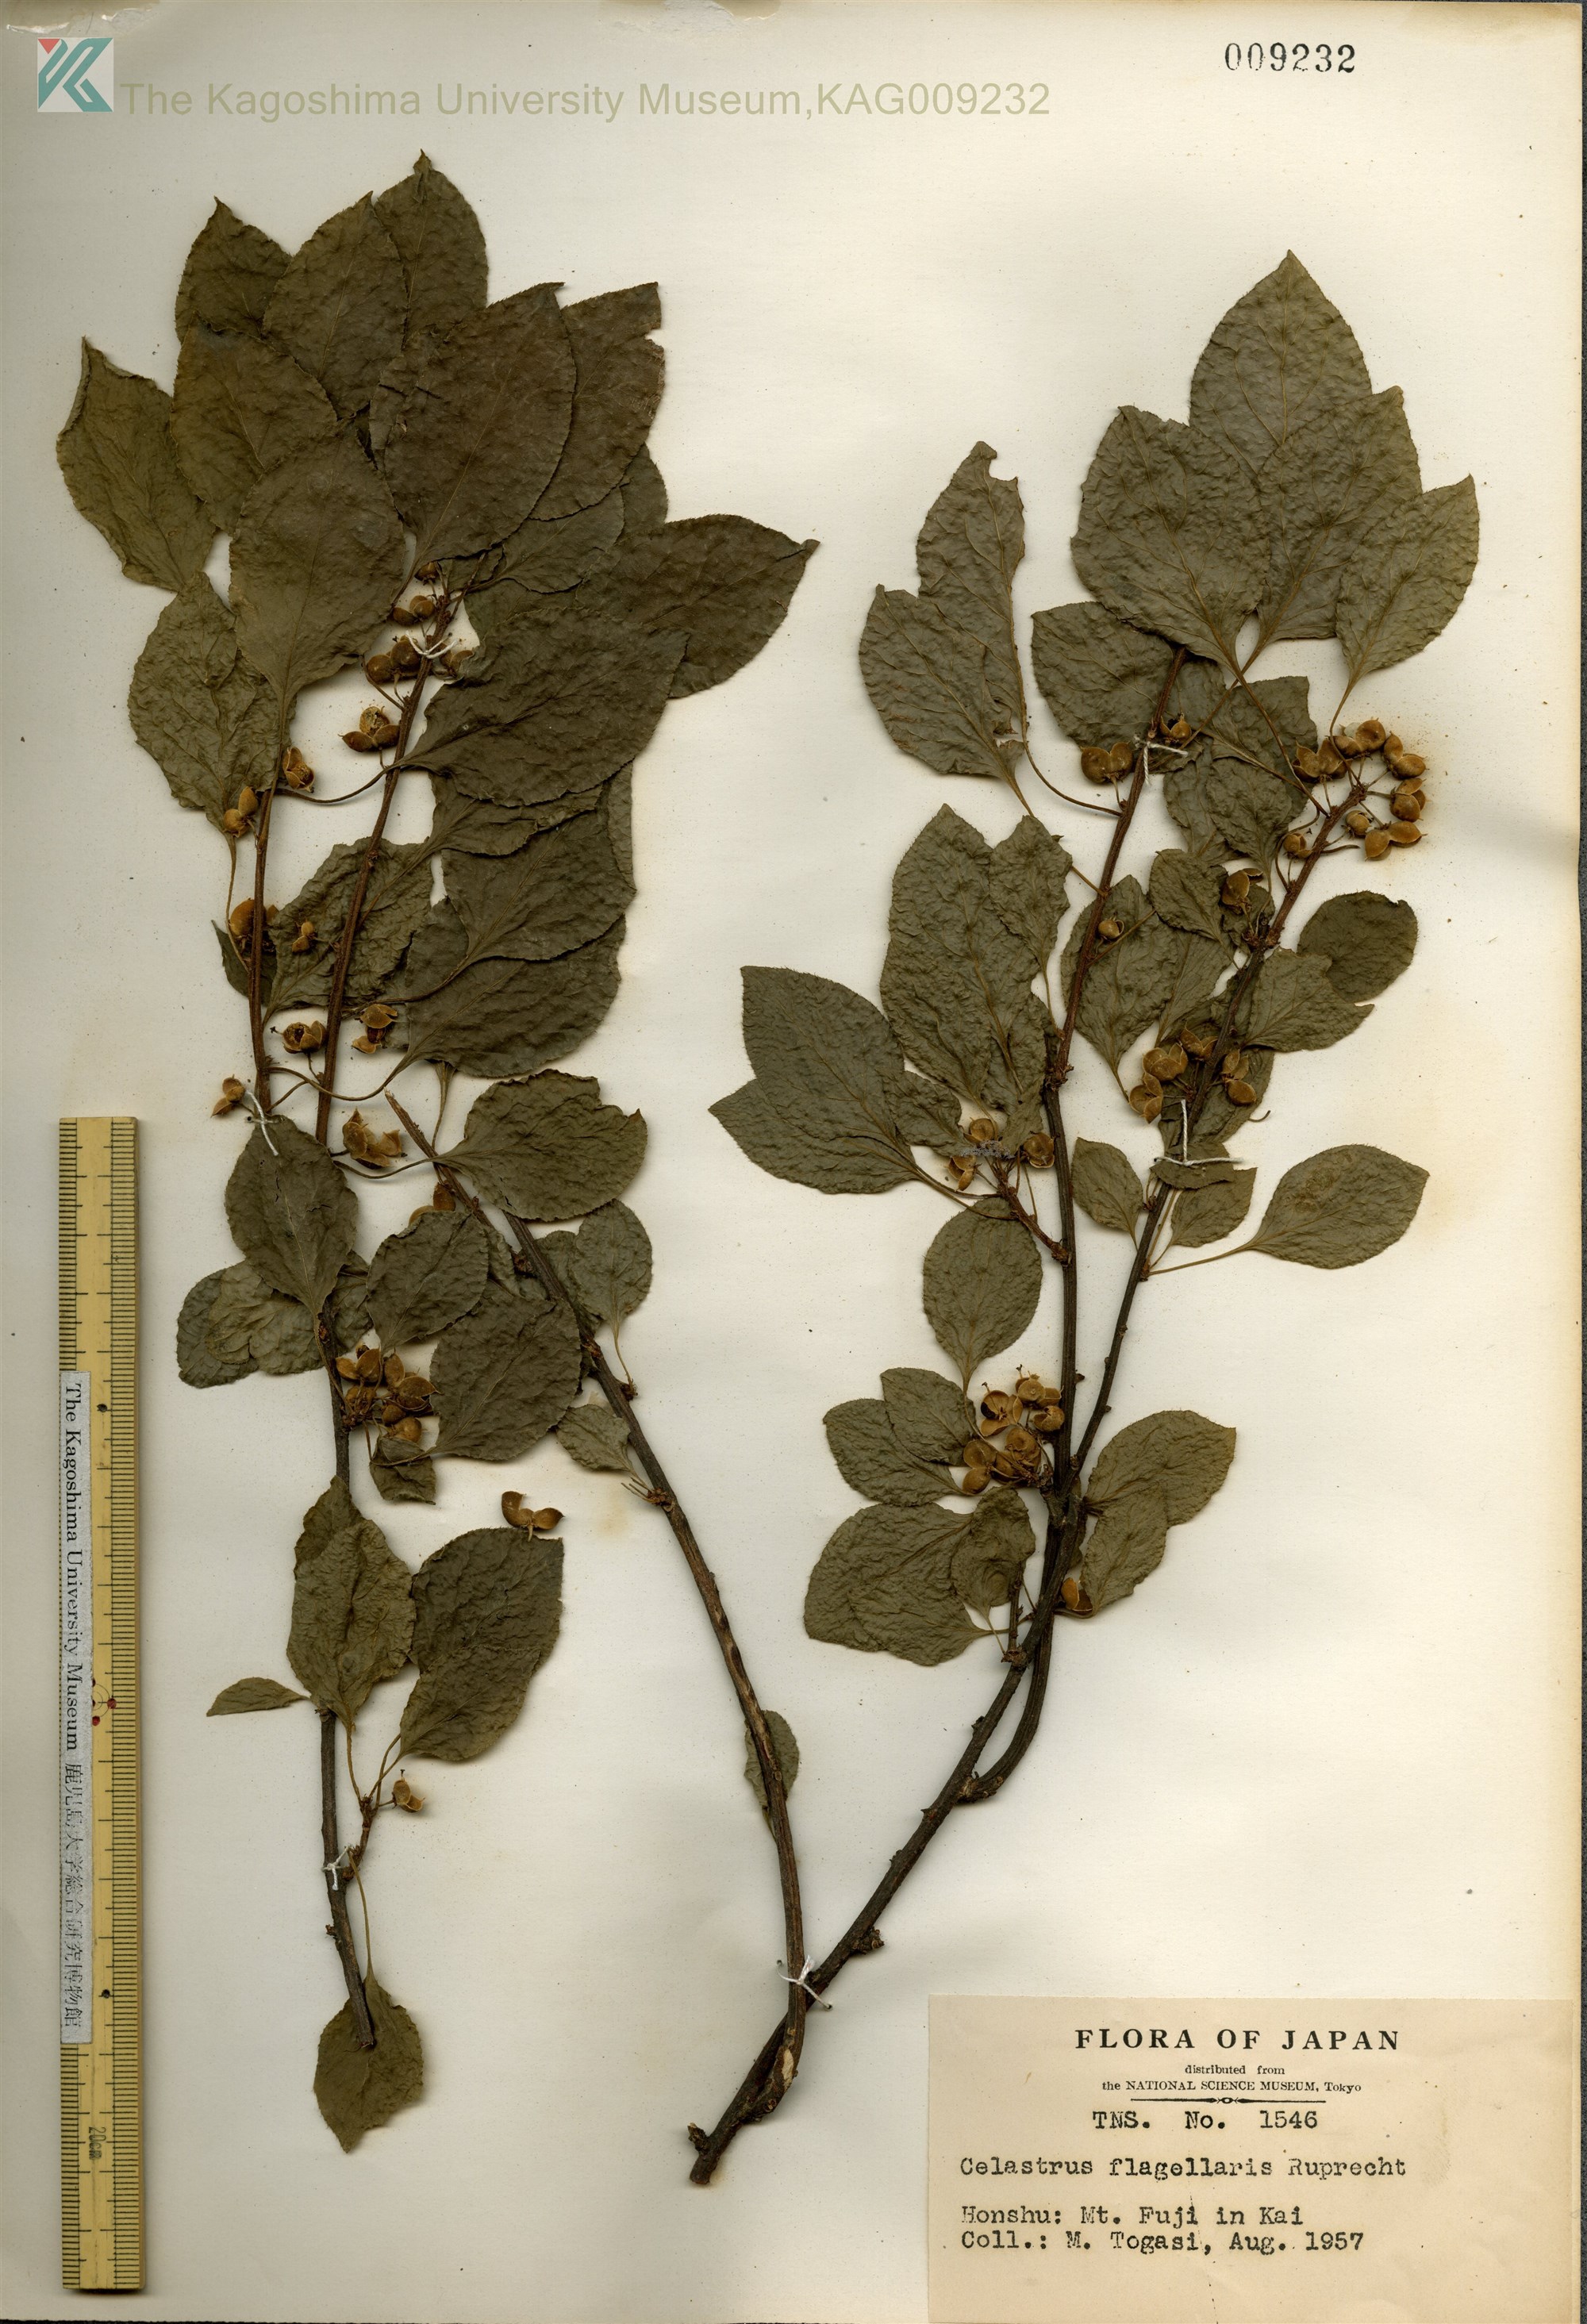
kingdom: Plantae
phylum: Tracheophyta
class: Magnoliopsida
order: Celastrales
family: Celastraceae
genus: Celastrus
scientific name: Celastrus flagellaris
